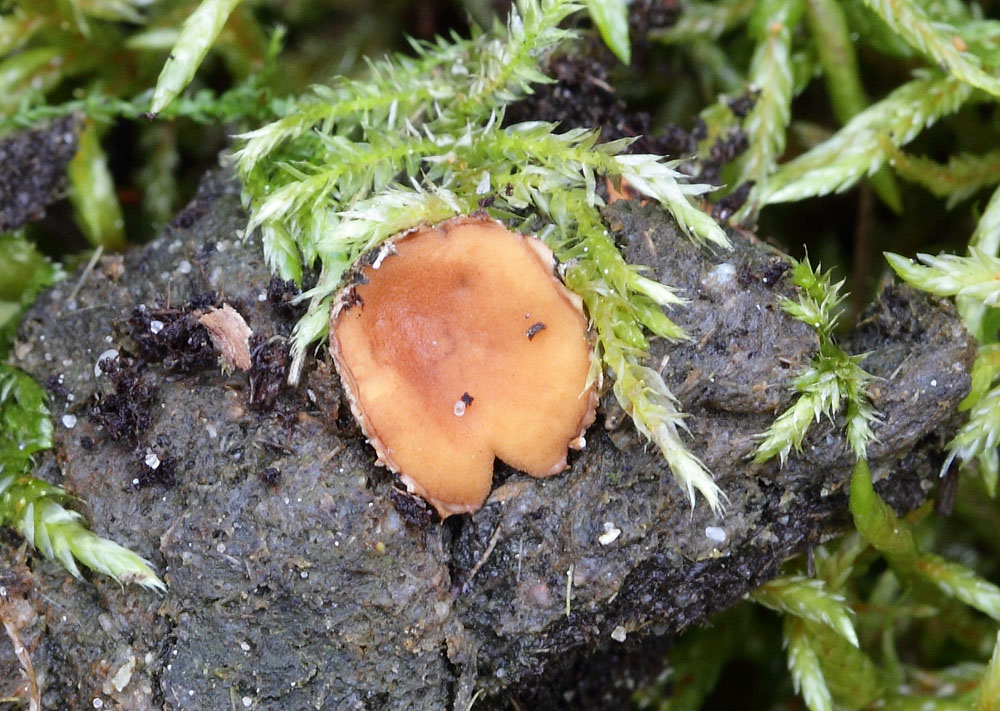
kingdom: Fungi
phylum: Ascomycota
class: Pezizomycetes
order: Pezizales
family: Pseudombrophilaceae
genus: Pseudombrophila
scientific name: Pseudombrophila ripensis
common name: knoldet randbæger
